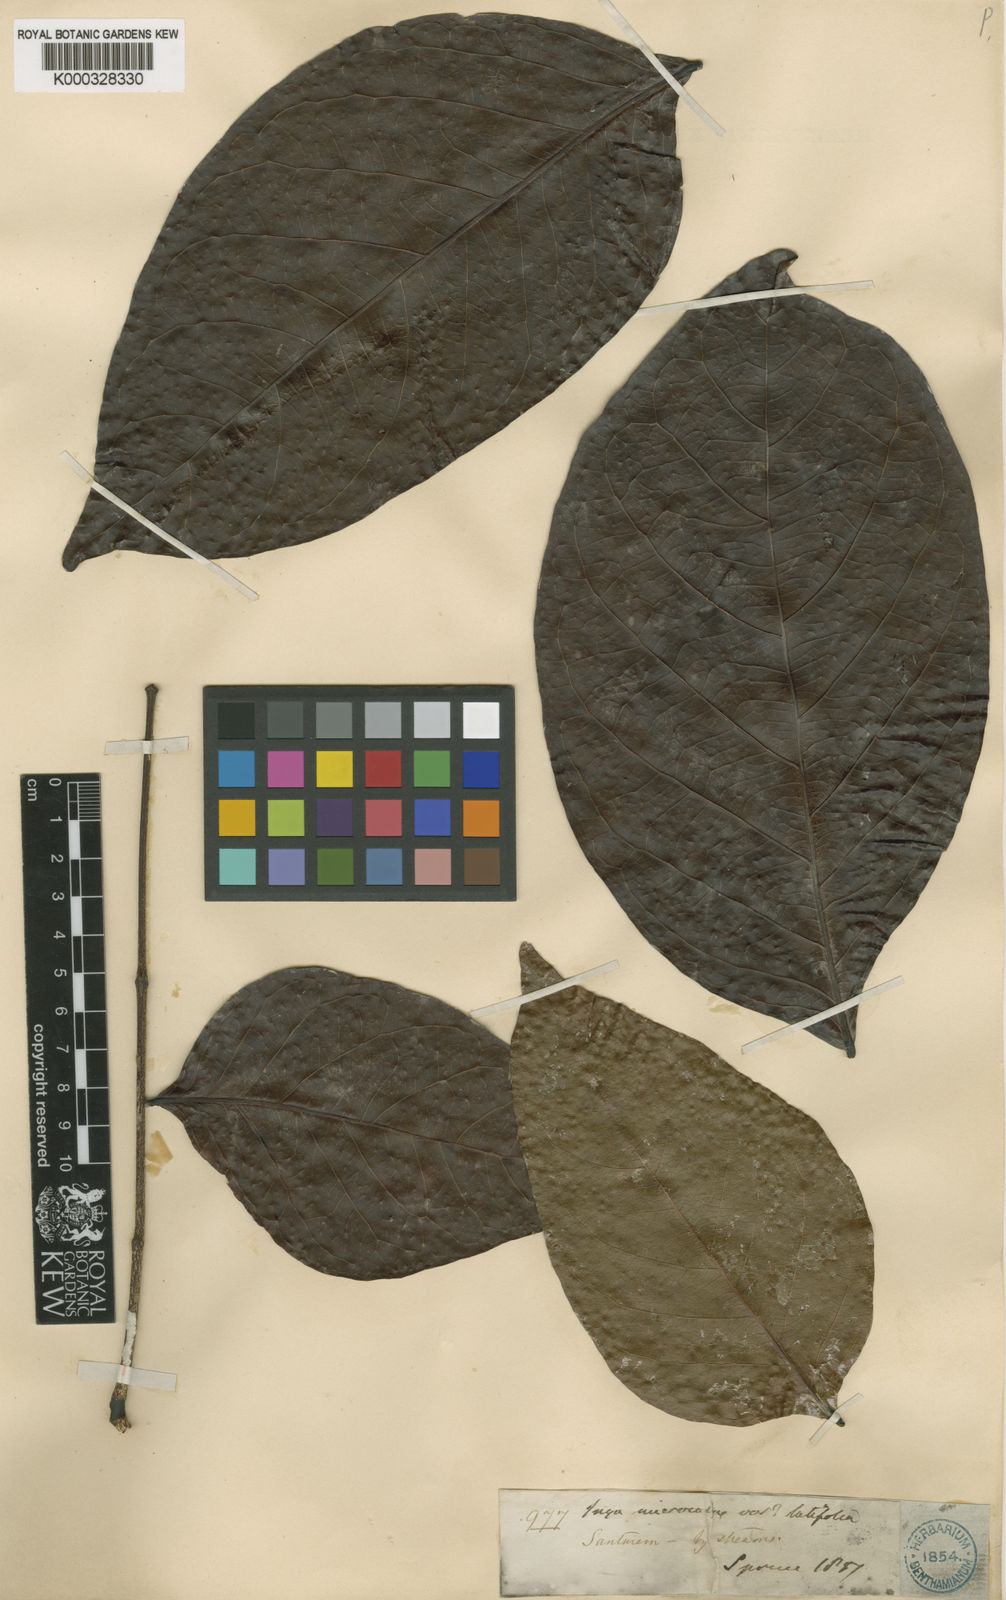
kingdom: Plantae
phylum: Tracheophyta
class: Magnoliopsida
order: Fabales
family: Fabaceae
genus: Inga
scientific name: Inga microcalyx
